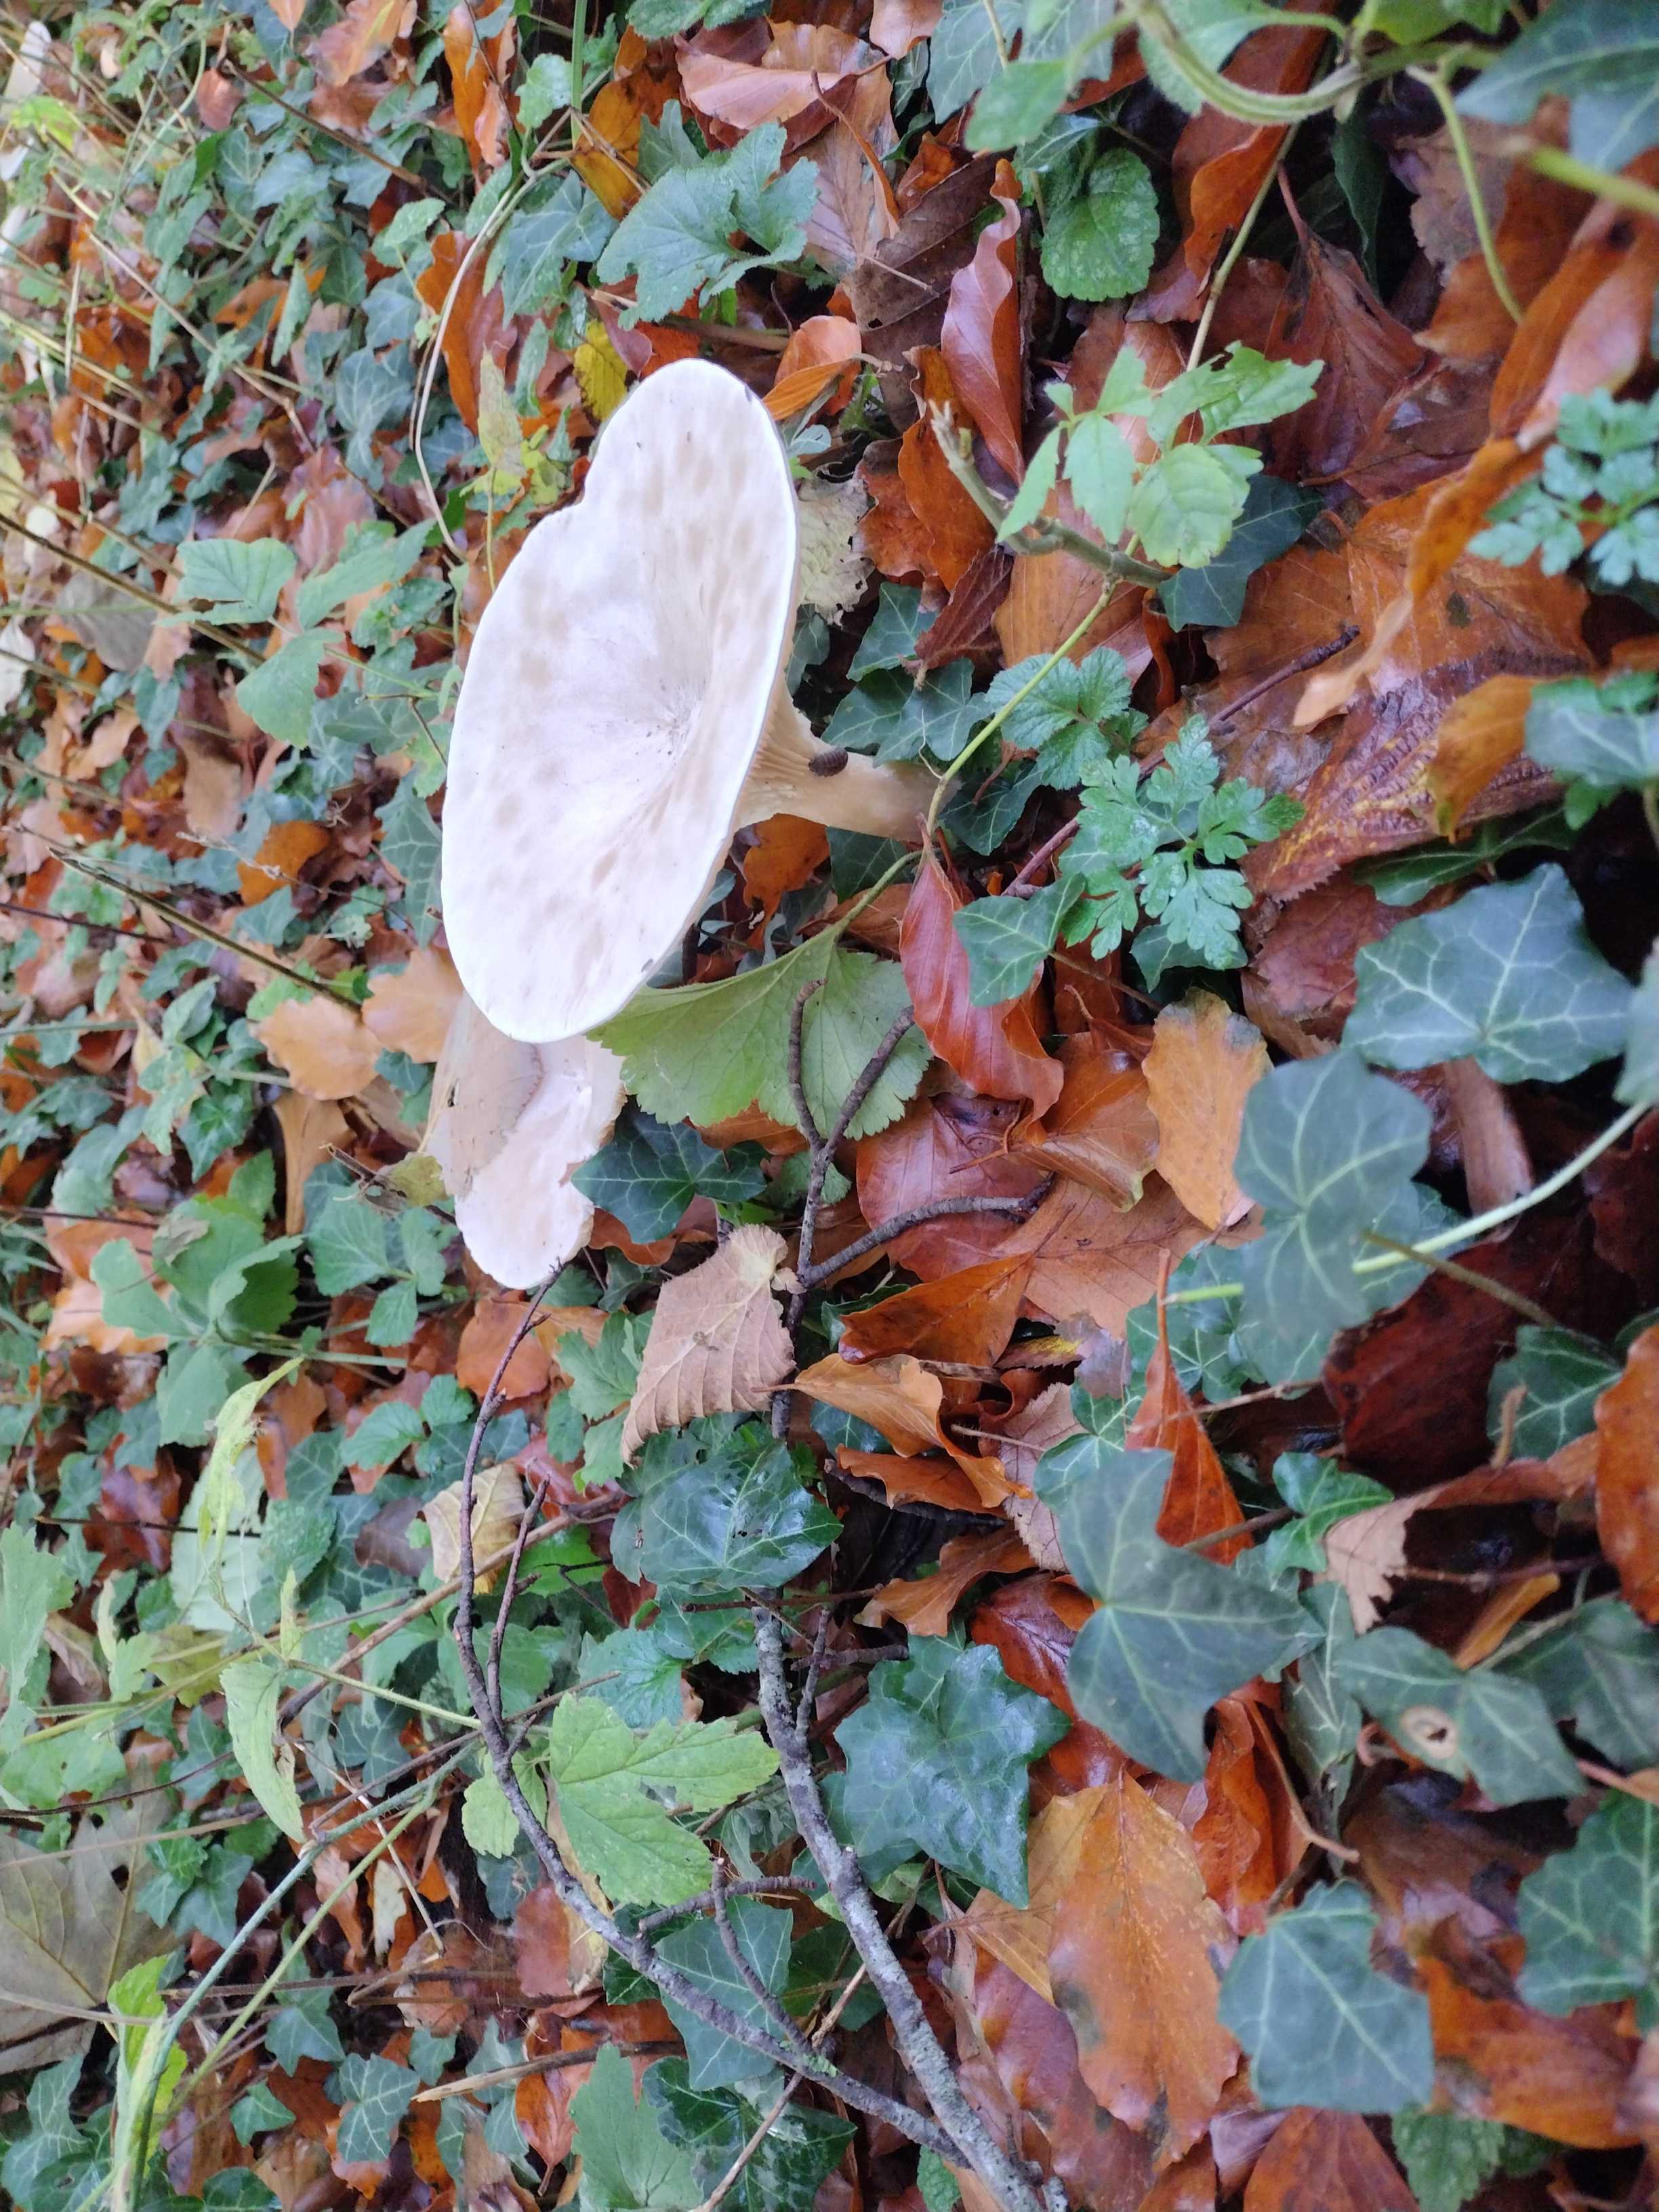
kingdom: Fungi
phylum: Basidiomycota
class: Agaricomycetes
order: Agaricales
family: Tricholomataceae
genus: Infundibulicybe
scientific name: Infundibulicybe geotropa
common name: stor tragthat
